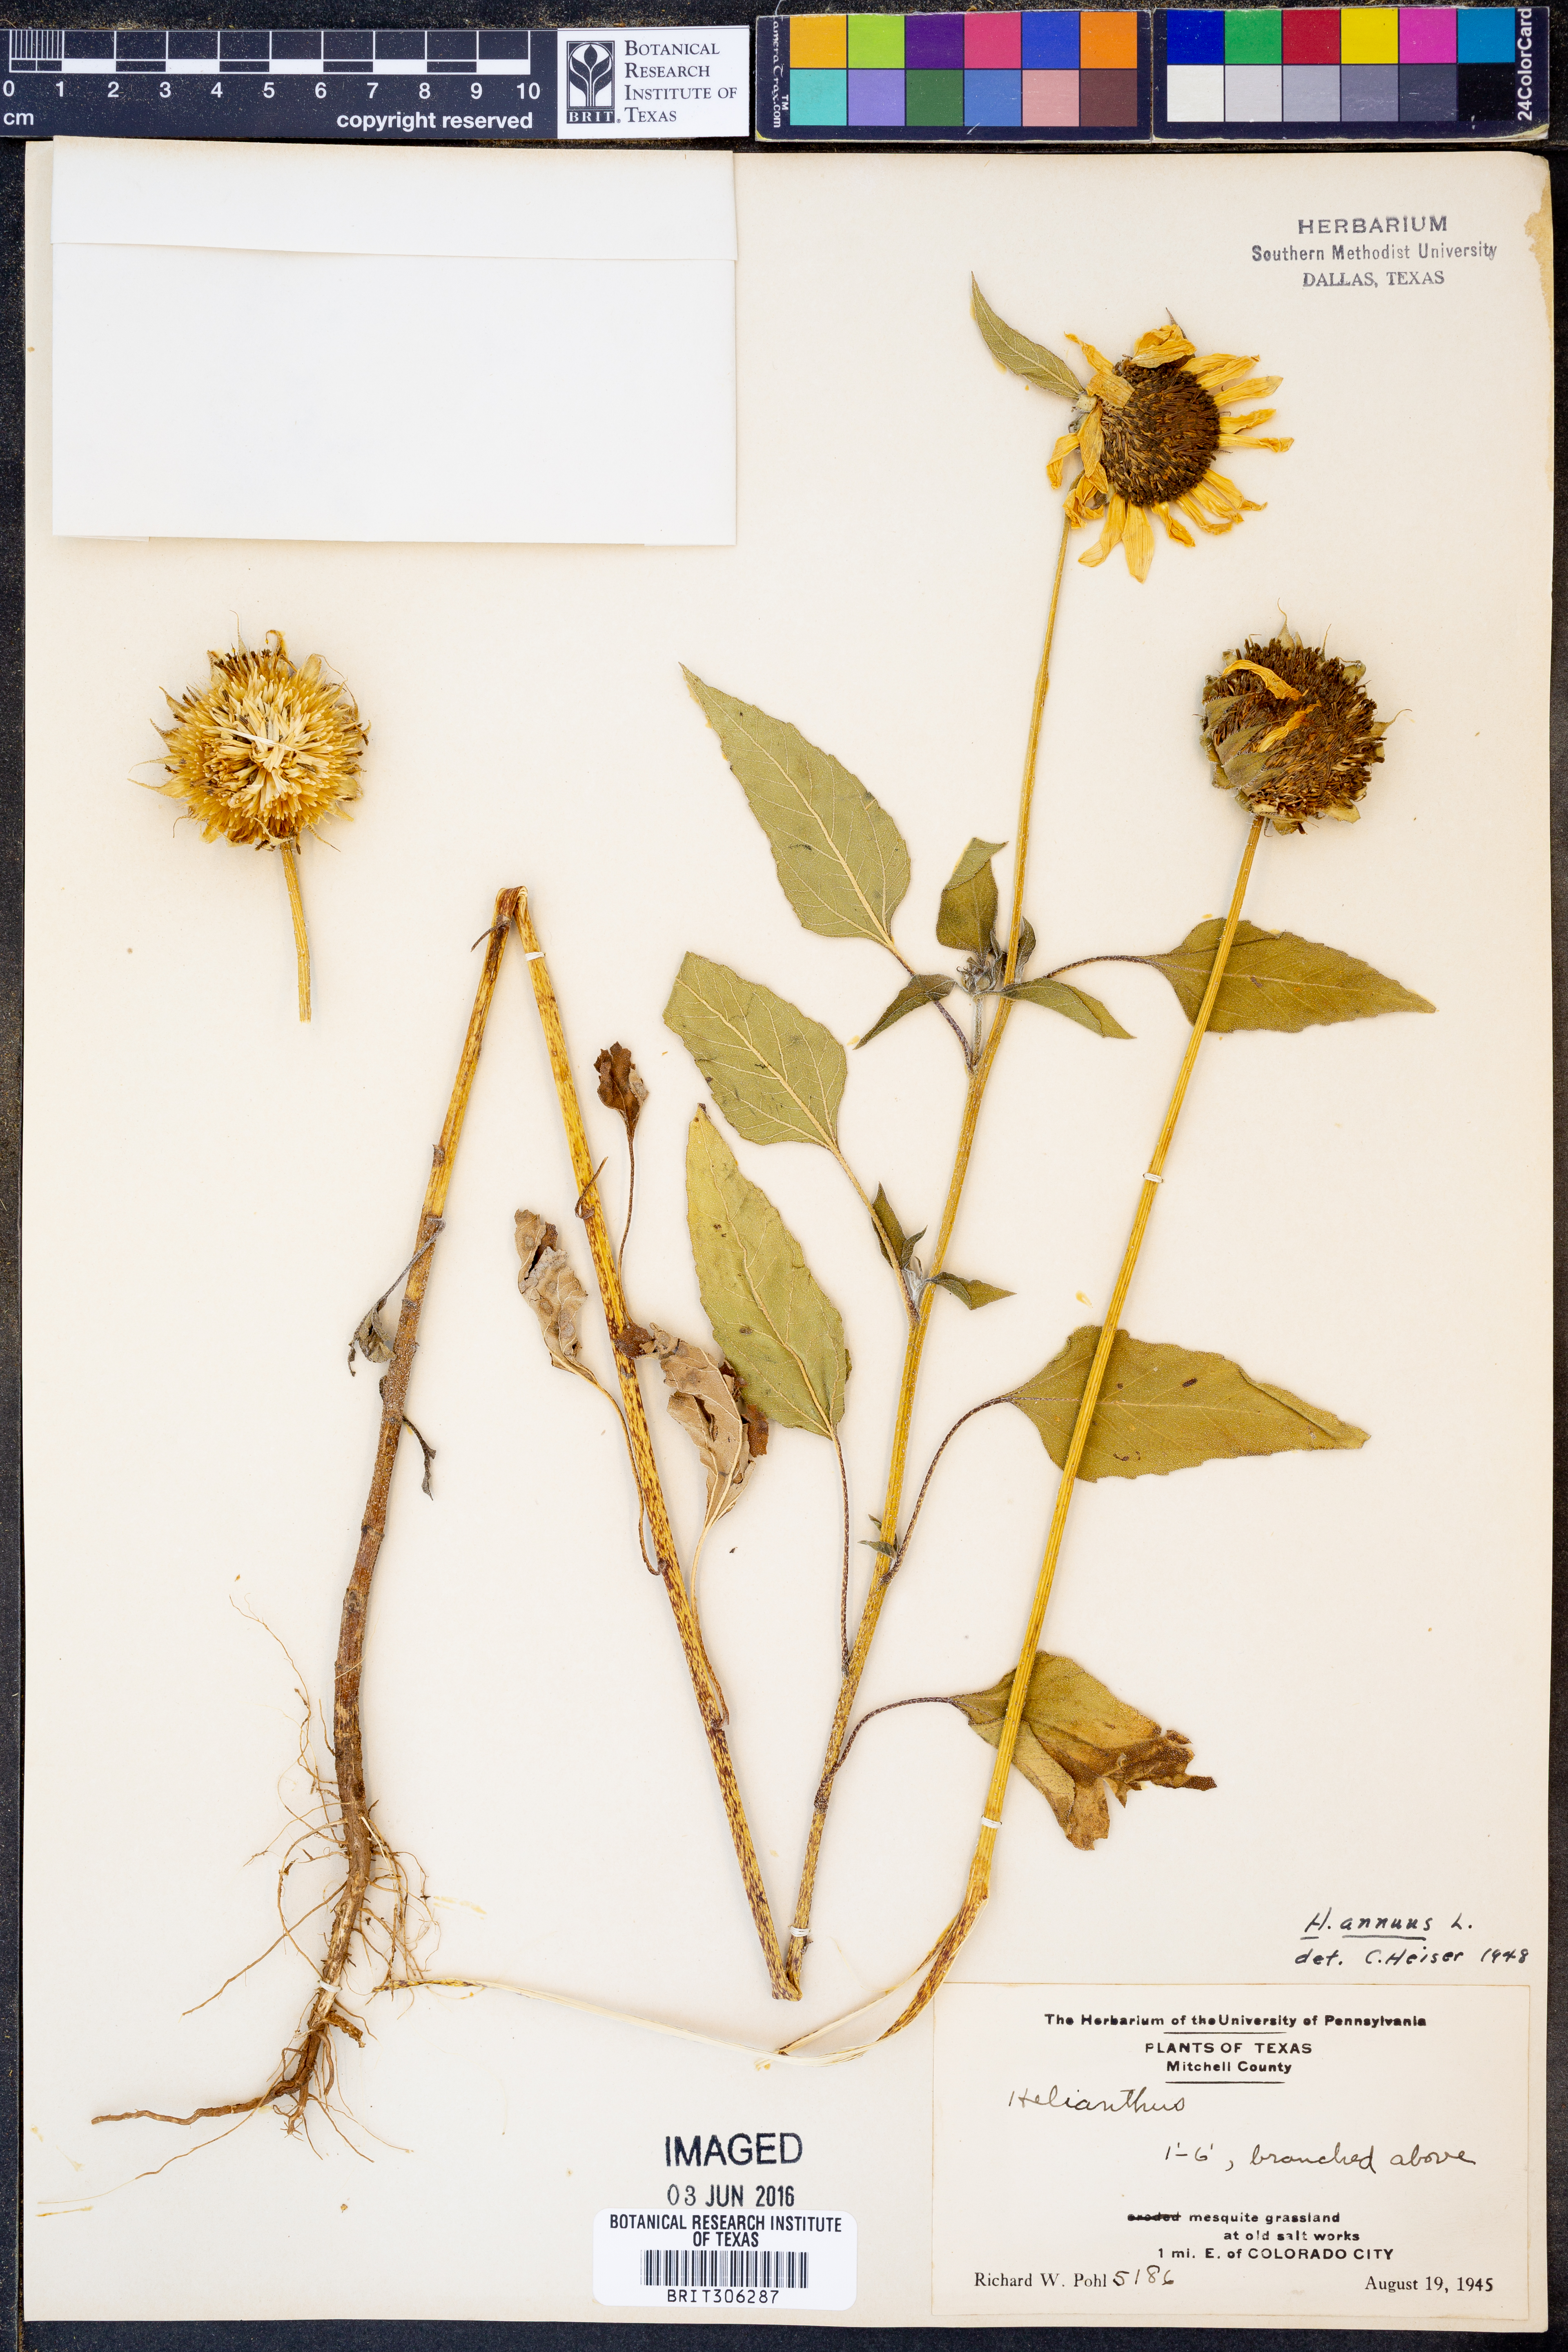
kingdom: Plantae
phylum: Tracheophyta
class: Magnoliopsida
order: Asterales
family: Asteraceae
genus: Helianthus
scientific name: Helianthus annuus
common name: Sunflower
